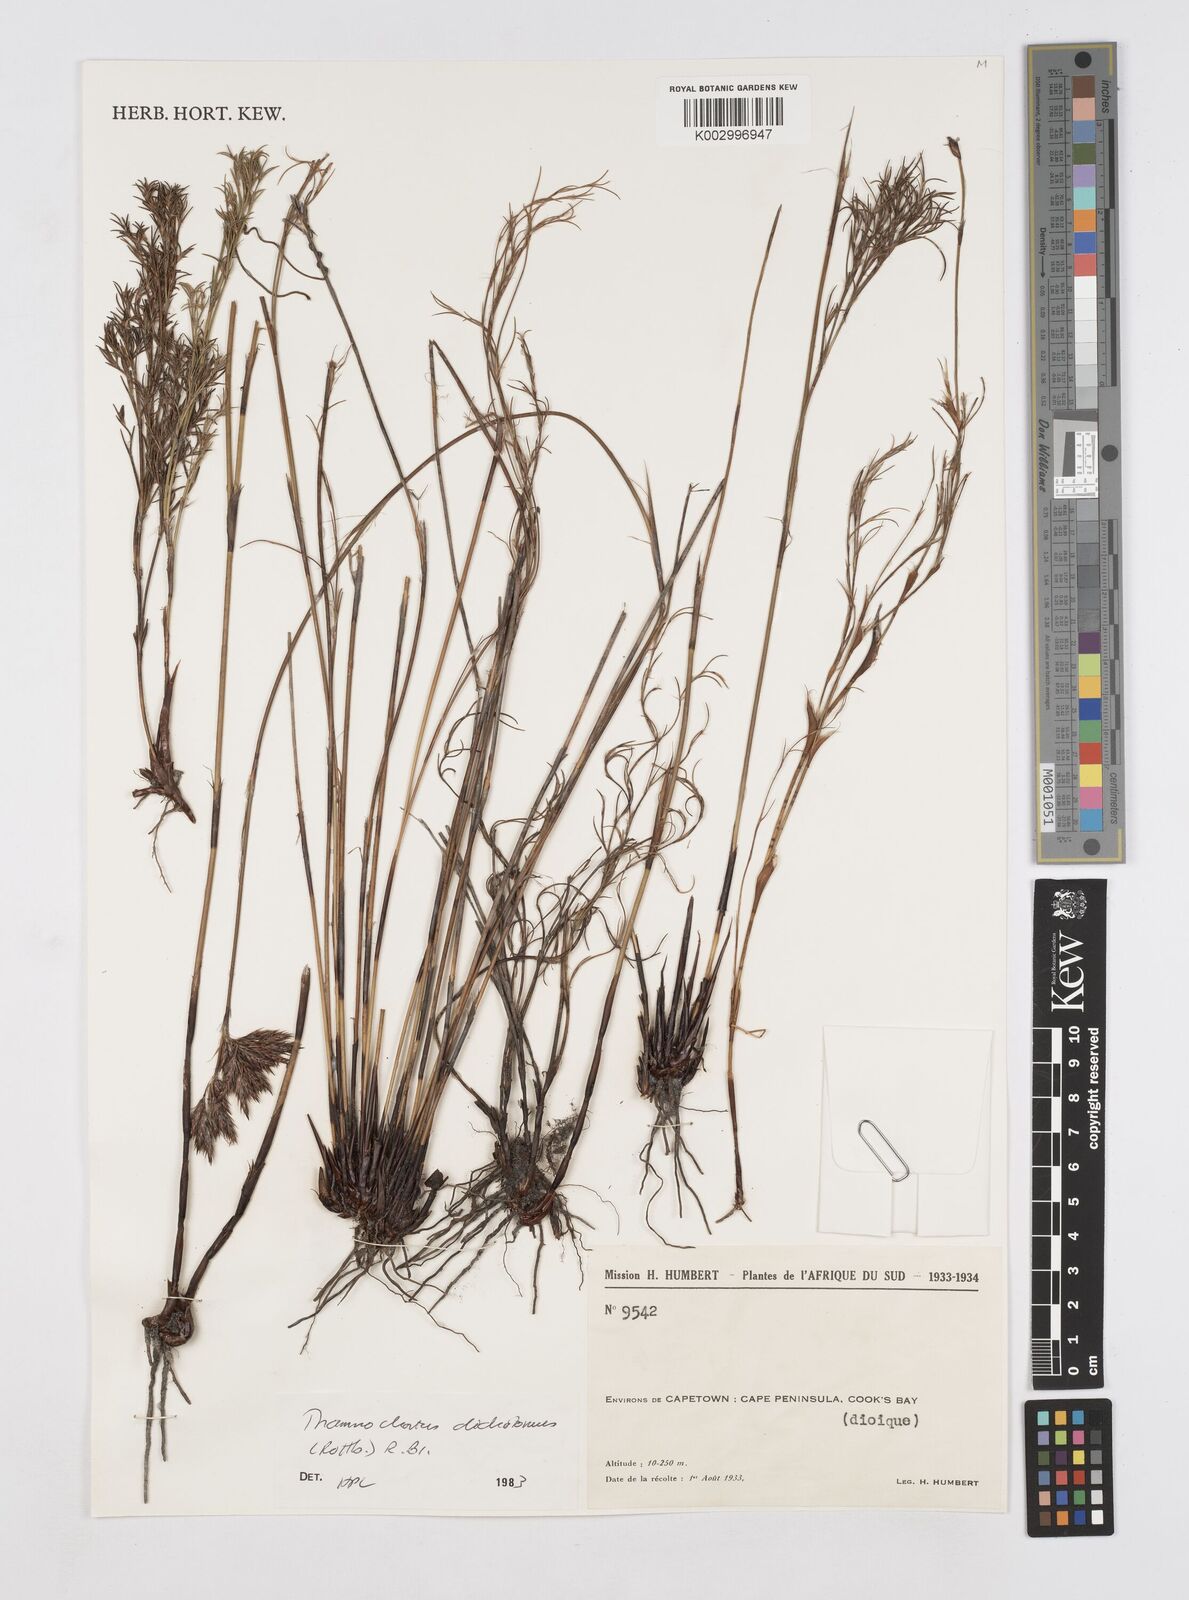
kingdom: Plantae
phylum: Tracheophyta
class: Liliopsida
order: Poales
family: Restionaceae
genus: Thamnochortus
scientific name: Thamnochortus lucens
